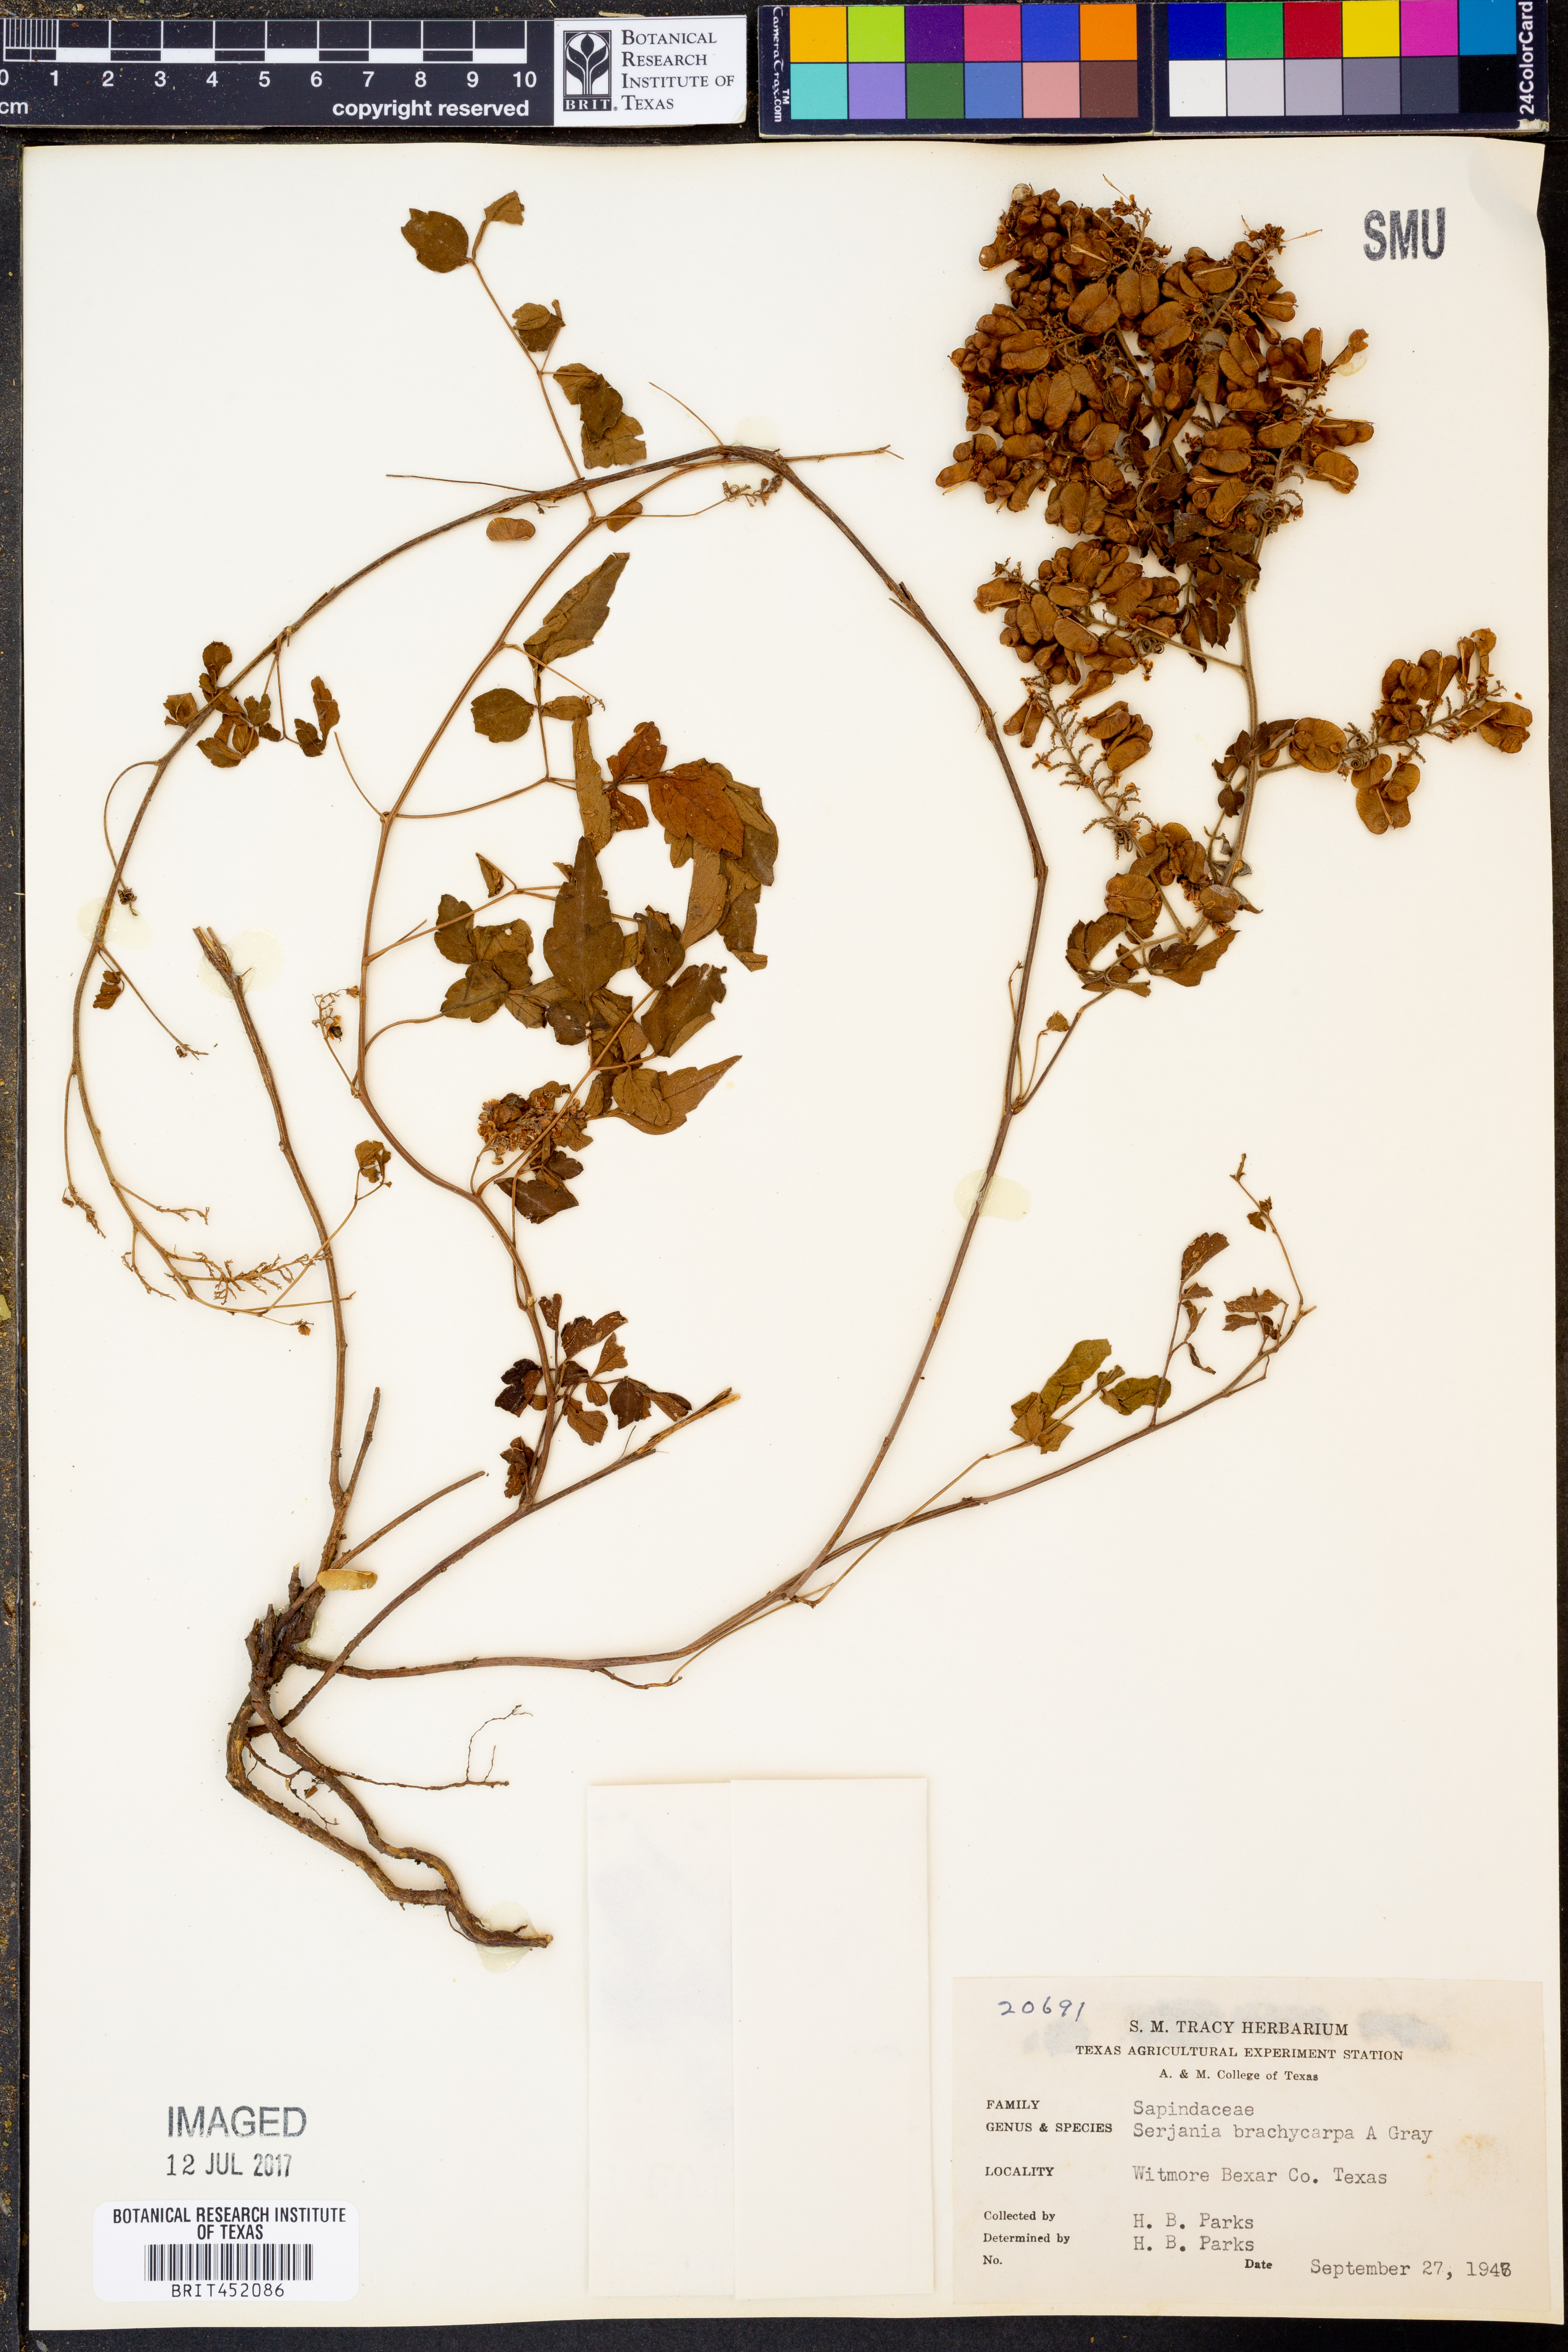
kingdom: Plantae
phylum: Tracheophyta
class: Magnoliopsida
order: Sapindales
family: Sapindaceae
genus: Serjania
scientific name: Serjania brachycarpa
